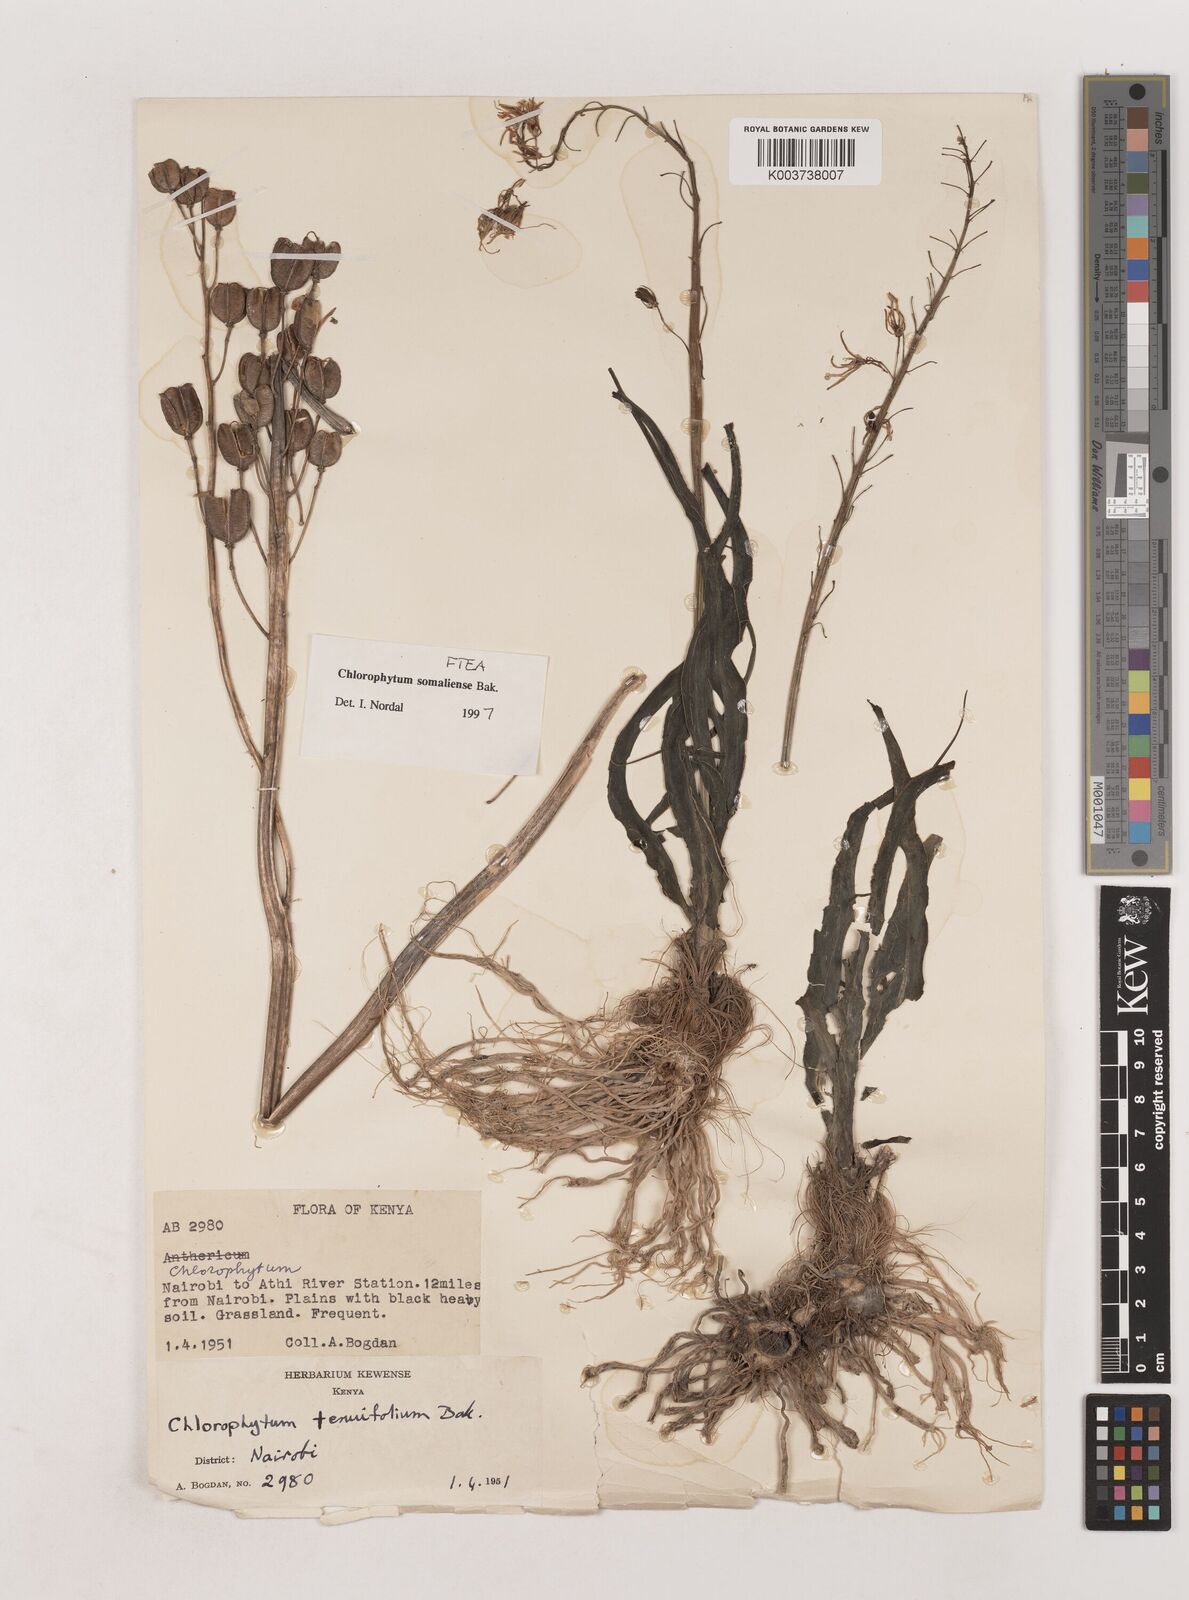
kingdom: Plantae
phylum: Tracheophyta
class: Liliopsida
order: Asparagales
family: Asparagaceae
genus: Chlorophytum
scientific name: Chlorophytum somaliense
